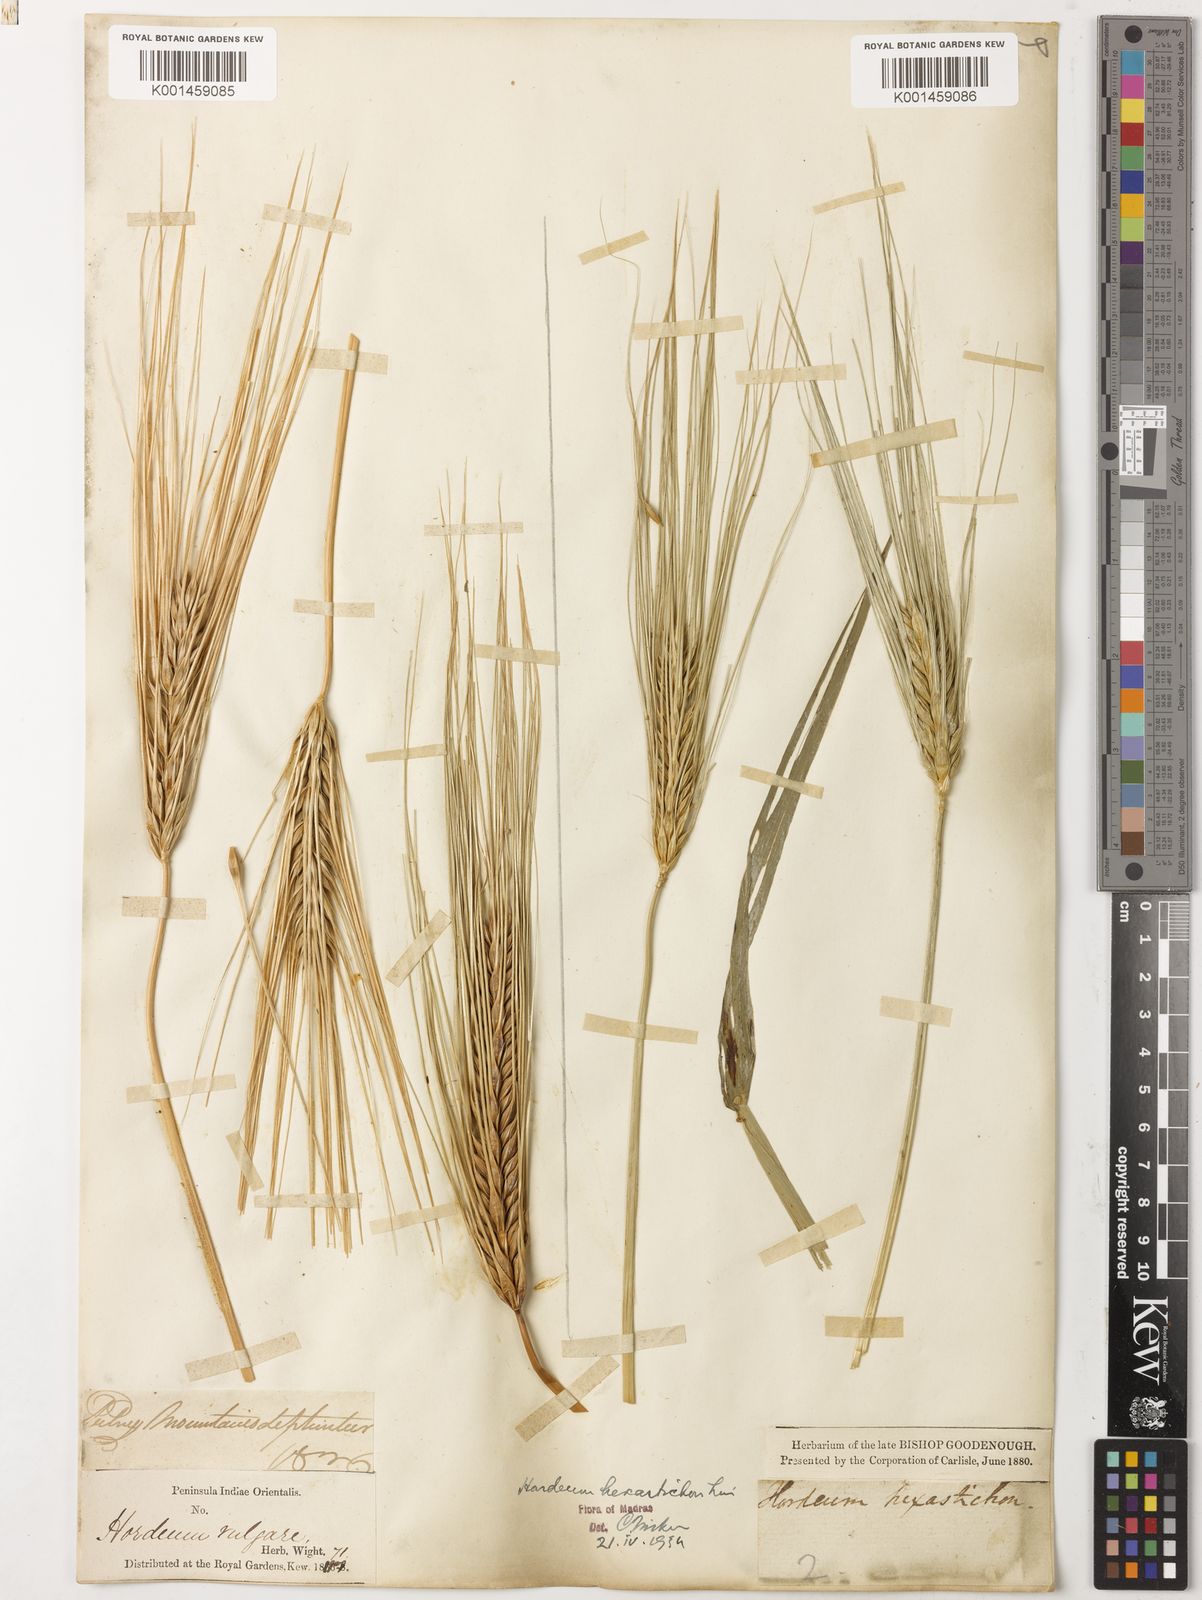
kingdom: Plantae
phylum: Tracheophyta
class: Liliopsida
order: Poales
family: Poaceae
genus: Hordeum
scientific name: Hordeum vulgare
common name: Common barley
